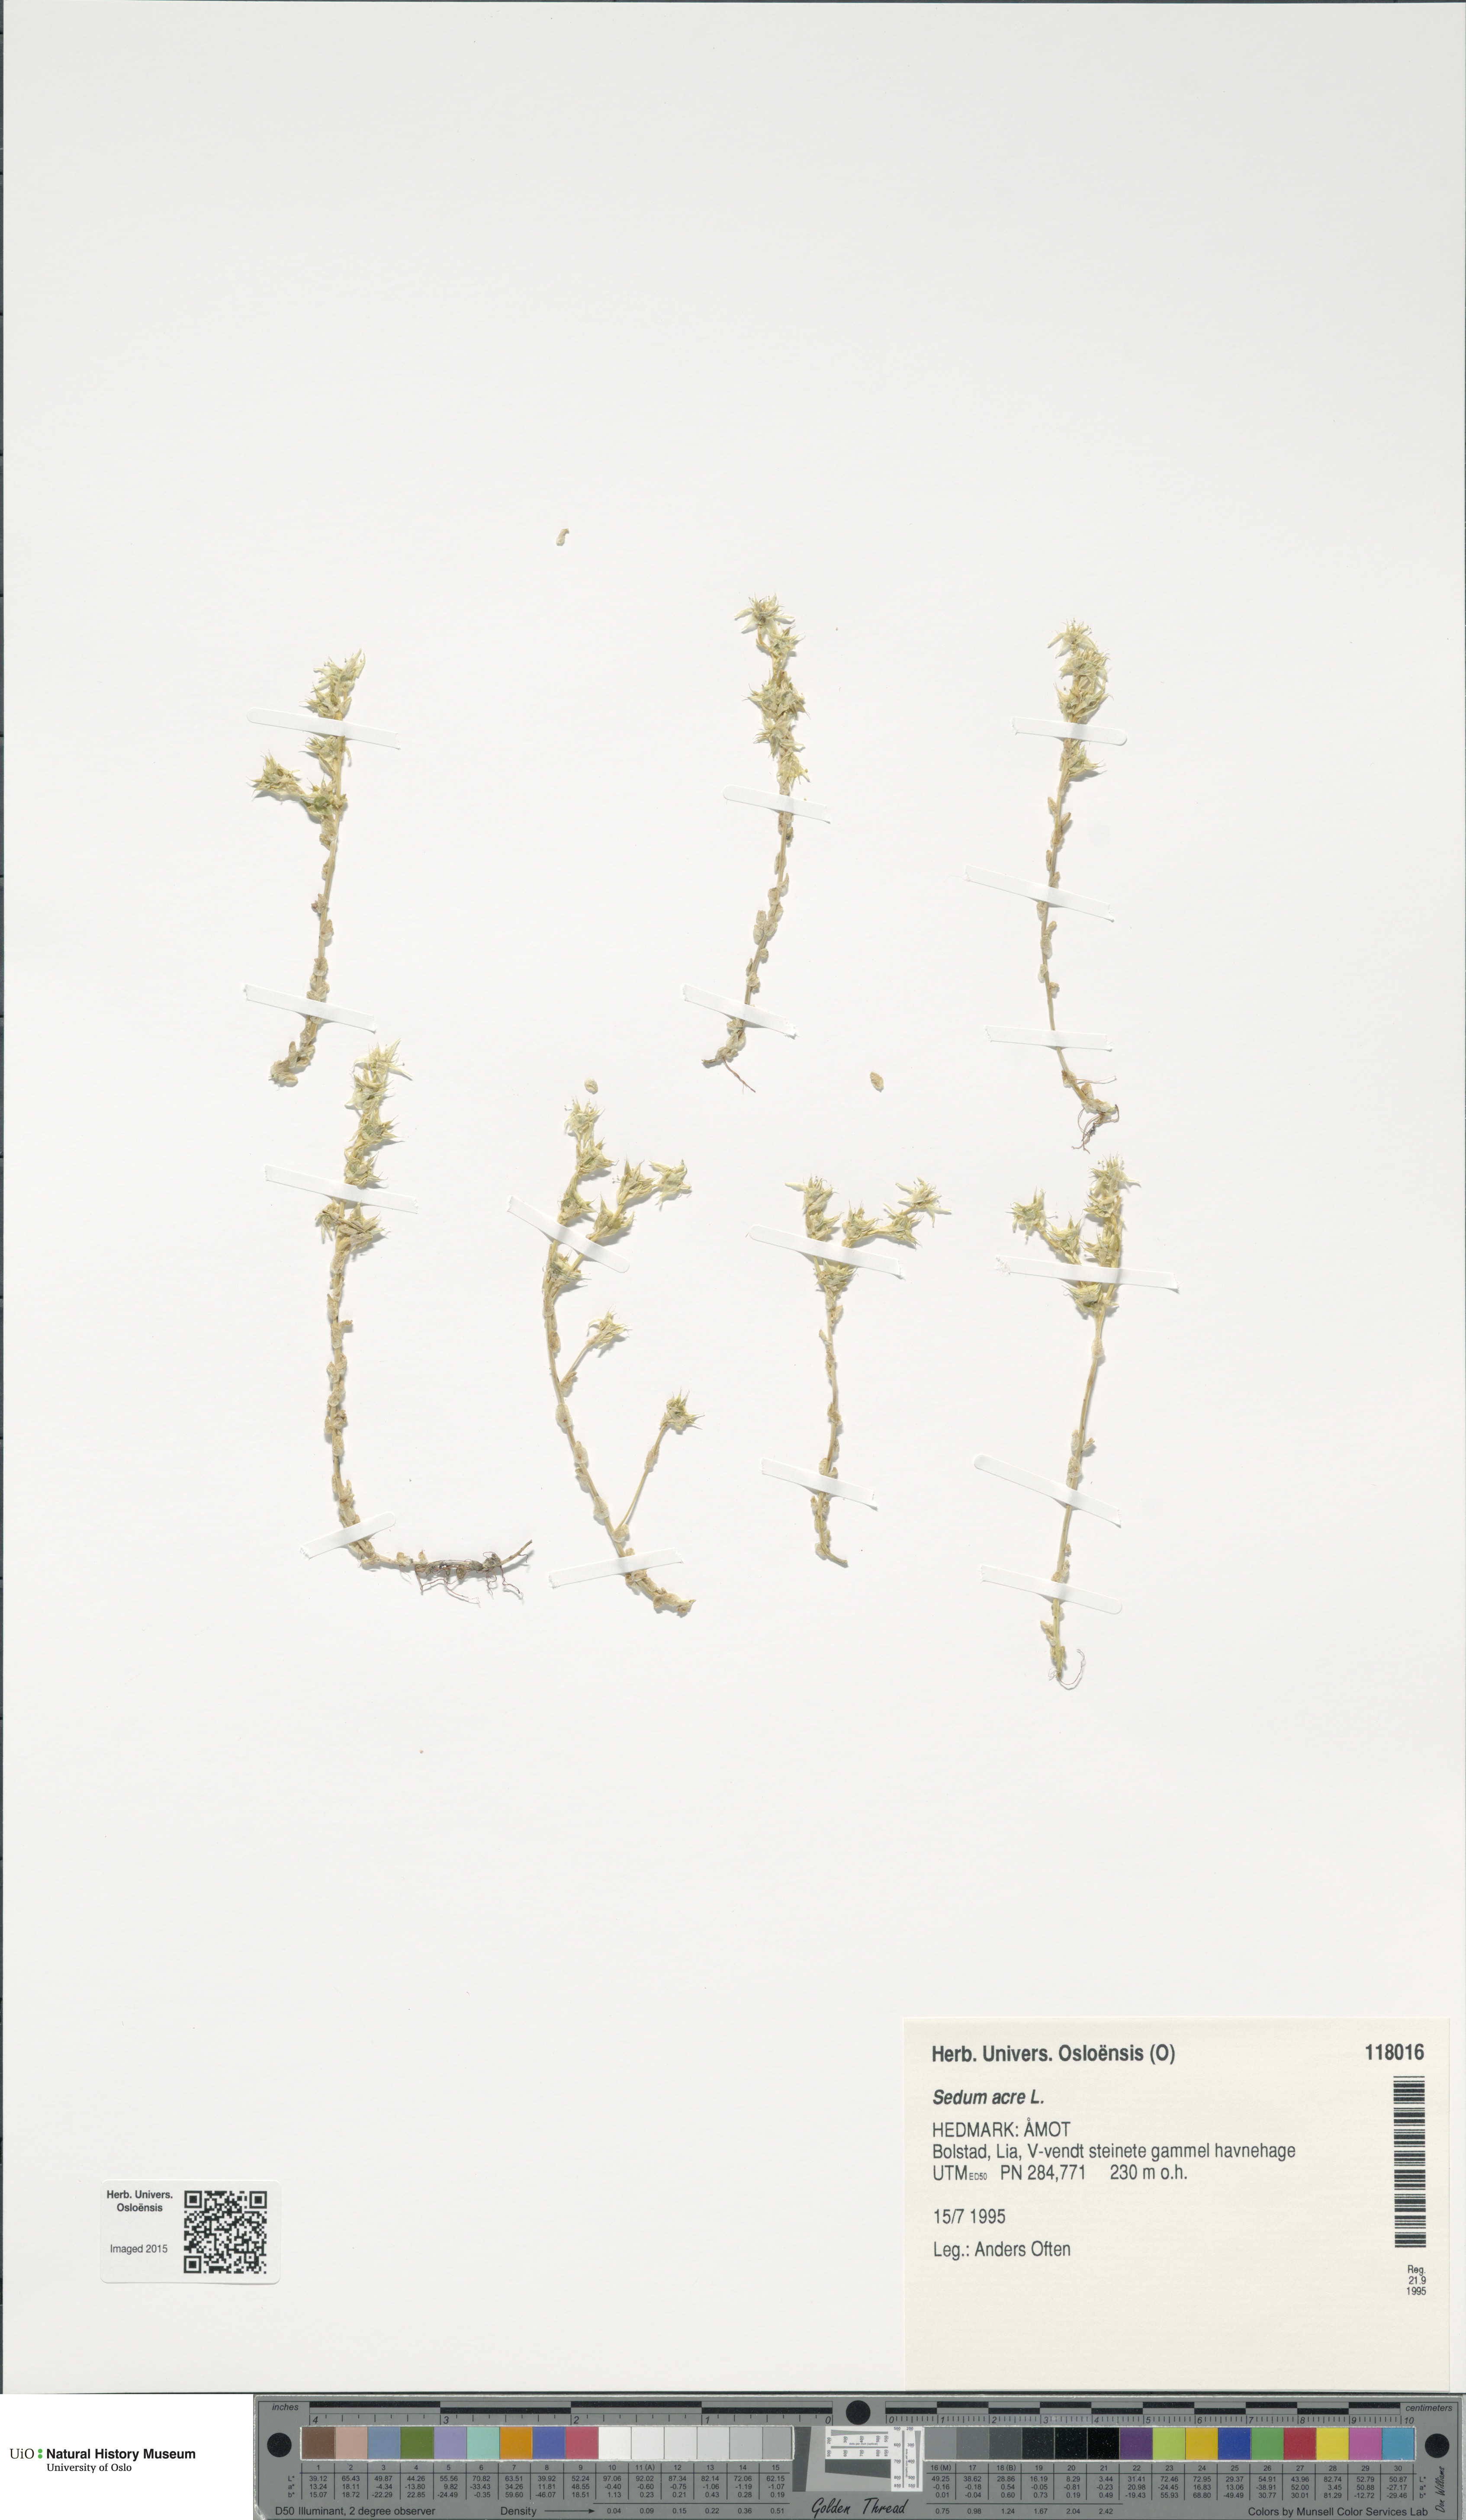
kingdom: Plantae
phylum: Tracheophyta
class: Magnoliopsida
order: Saxifragales
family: Crassulaceae
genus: Sedum
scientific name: Sedum acre
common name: Biting stonecrop
